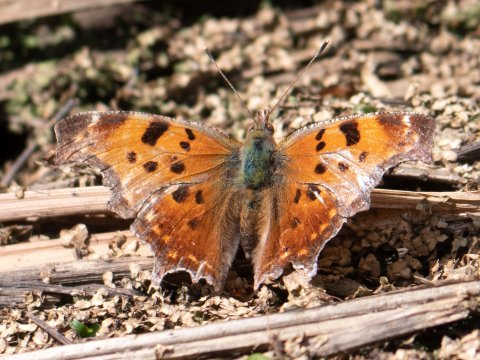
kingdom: Animalia
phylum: Arthropoda
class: Insecta
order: Lepidoptera
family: Nymphalidae
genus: Polygonia
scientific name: Polygonia comma
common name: Eastern Comma
